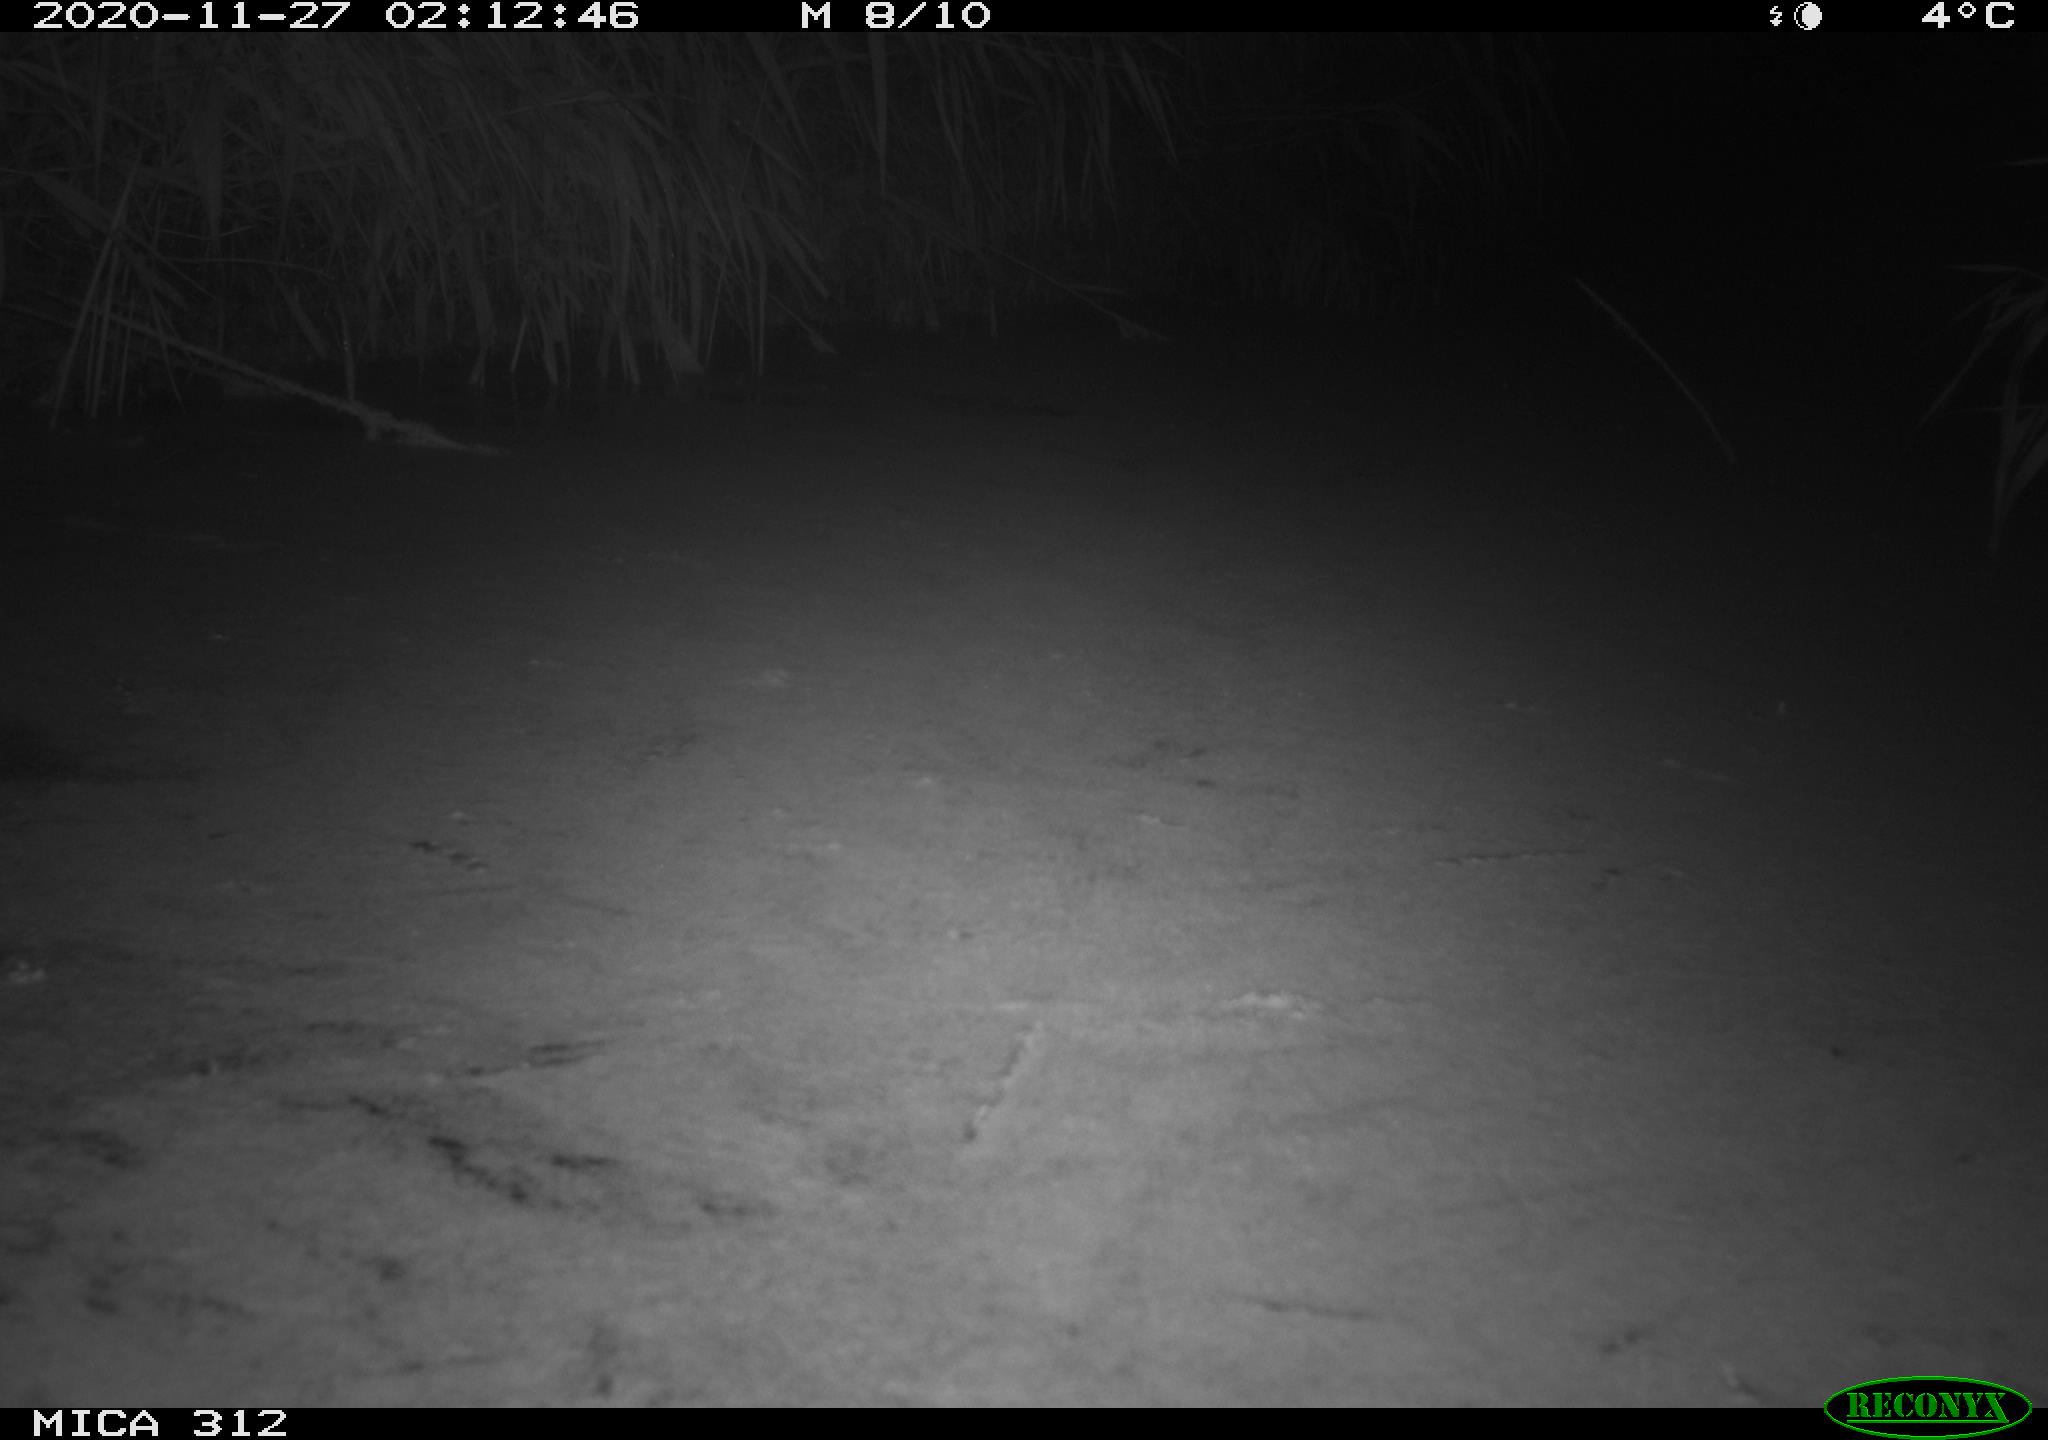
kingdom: Animalia
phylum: Chordata
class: Aves
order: Gruiformes
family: Rallidae
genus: Gallinula
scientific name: Gallinula chloropus
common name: Common moorhen
